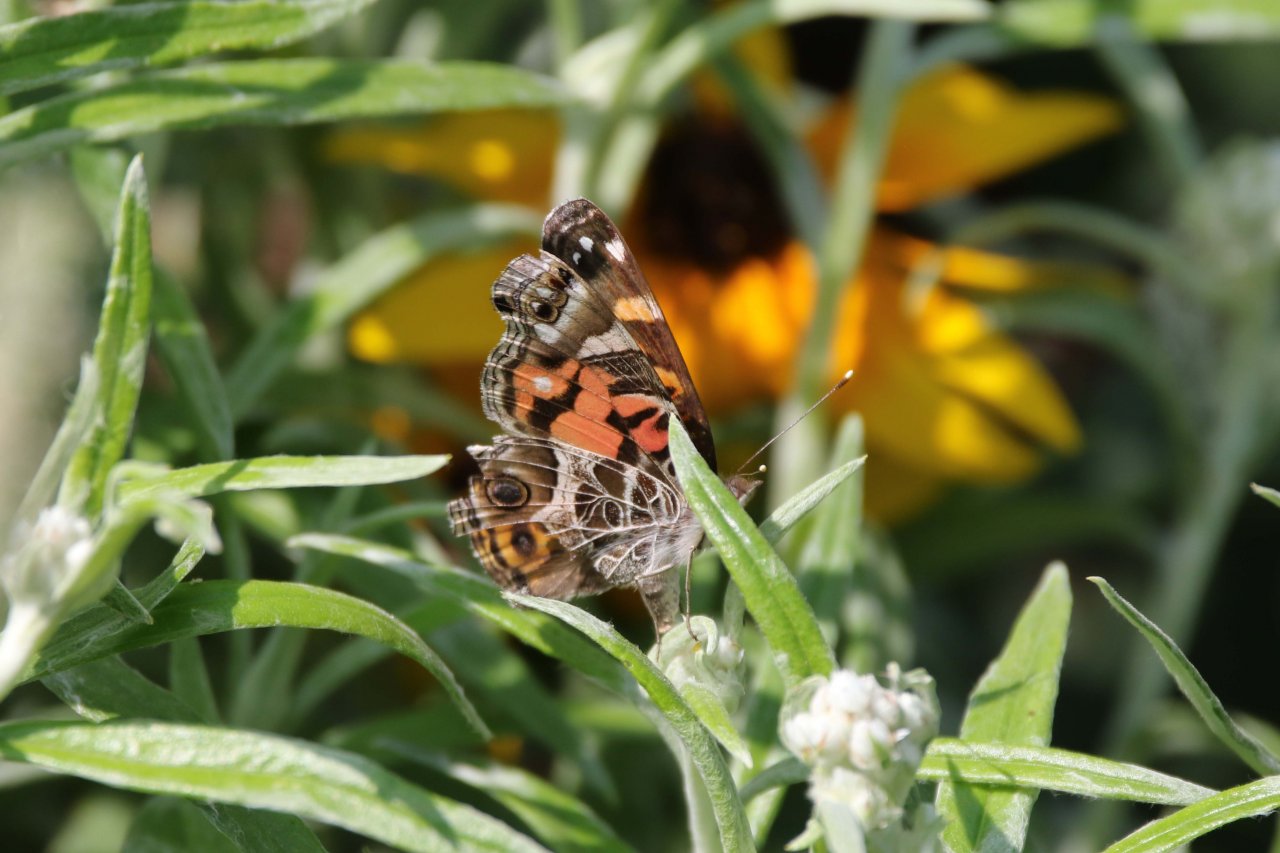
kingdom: Animalia
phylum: Arthropoda
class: Insecta
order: Lepidoptera
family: Nymphalidae
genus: Vanessa
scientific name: Vanessa virginiensis
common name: American Lady
